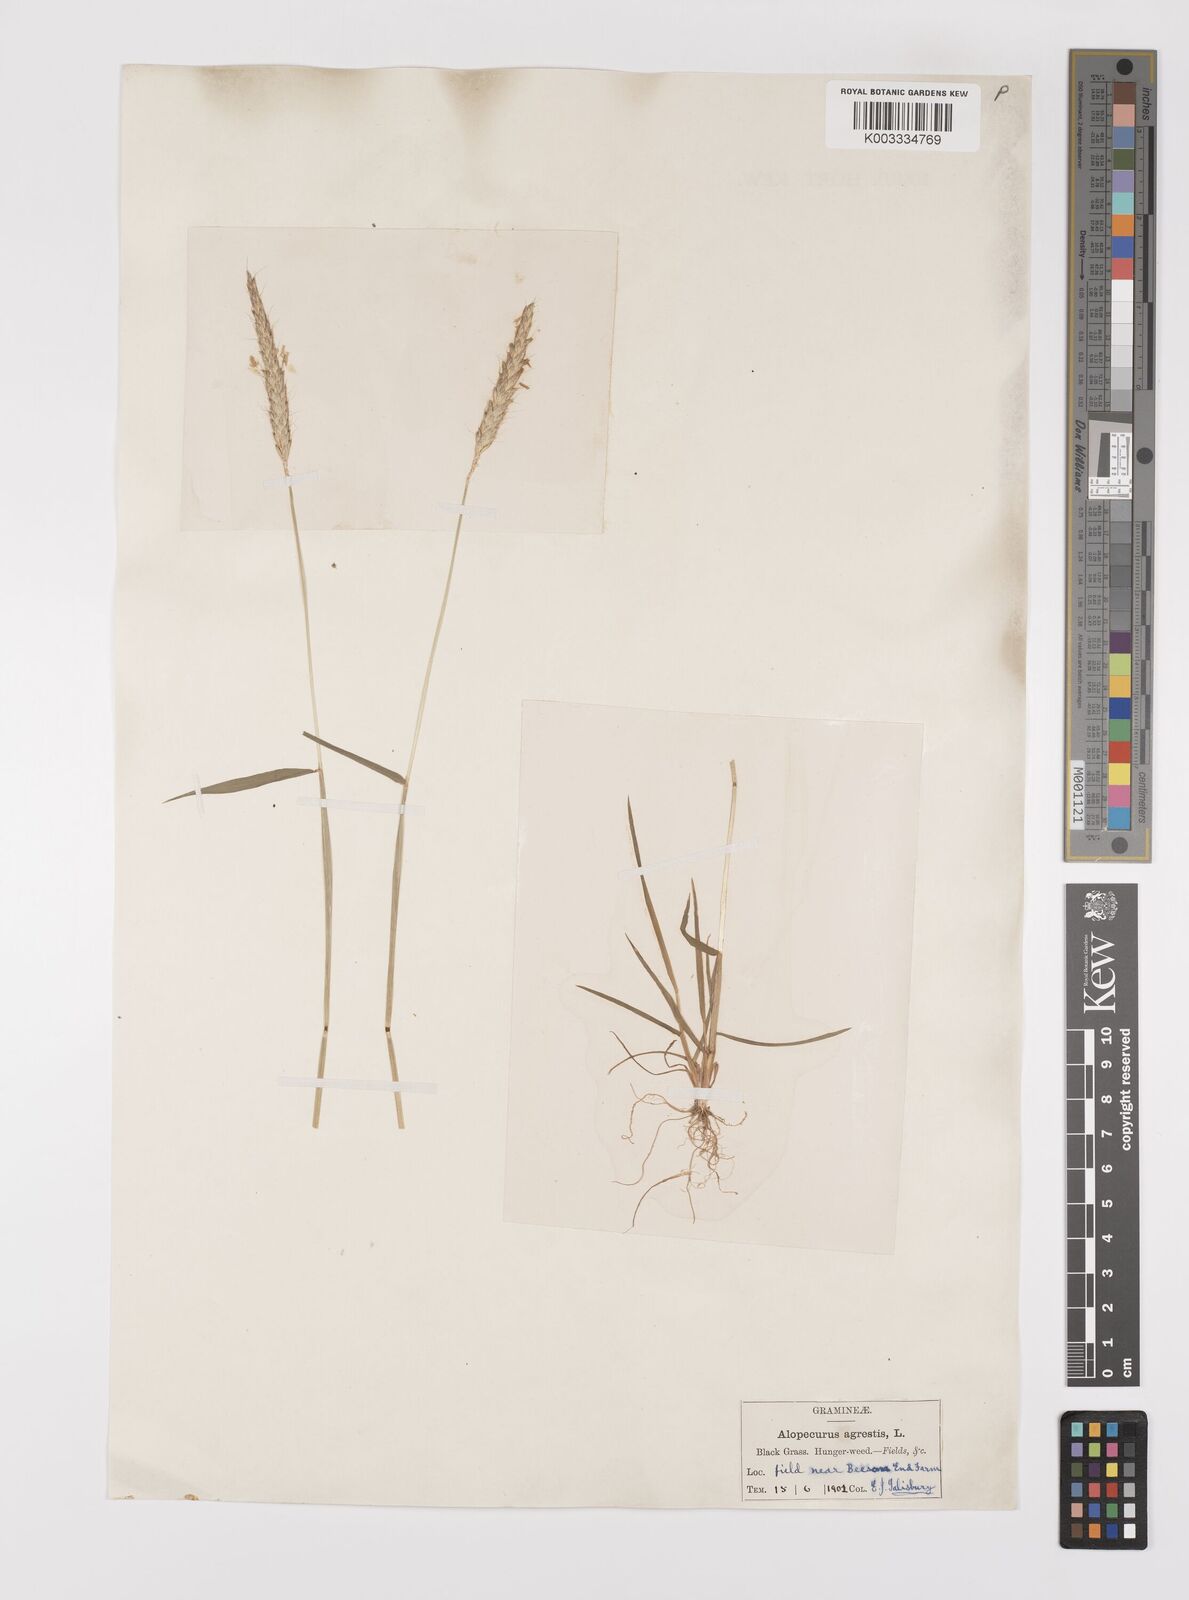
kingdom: Plantae
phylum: Tracheophyta
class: Liliopsida
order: Poales
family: Poaceae
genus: Alopecurus
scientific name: Alopecurus myosuroides
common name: Black-grass
